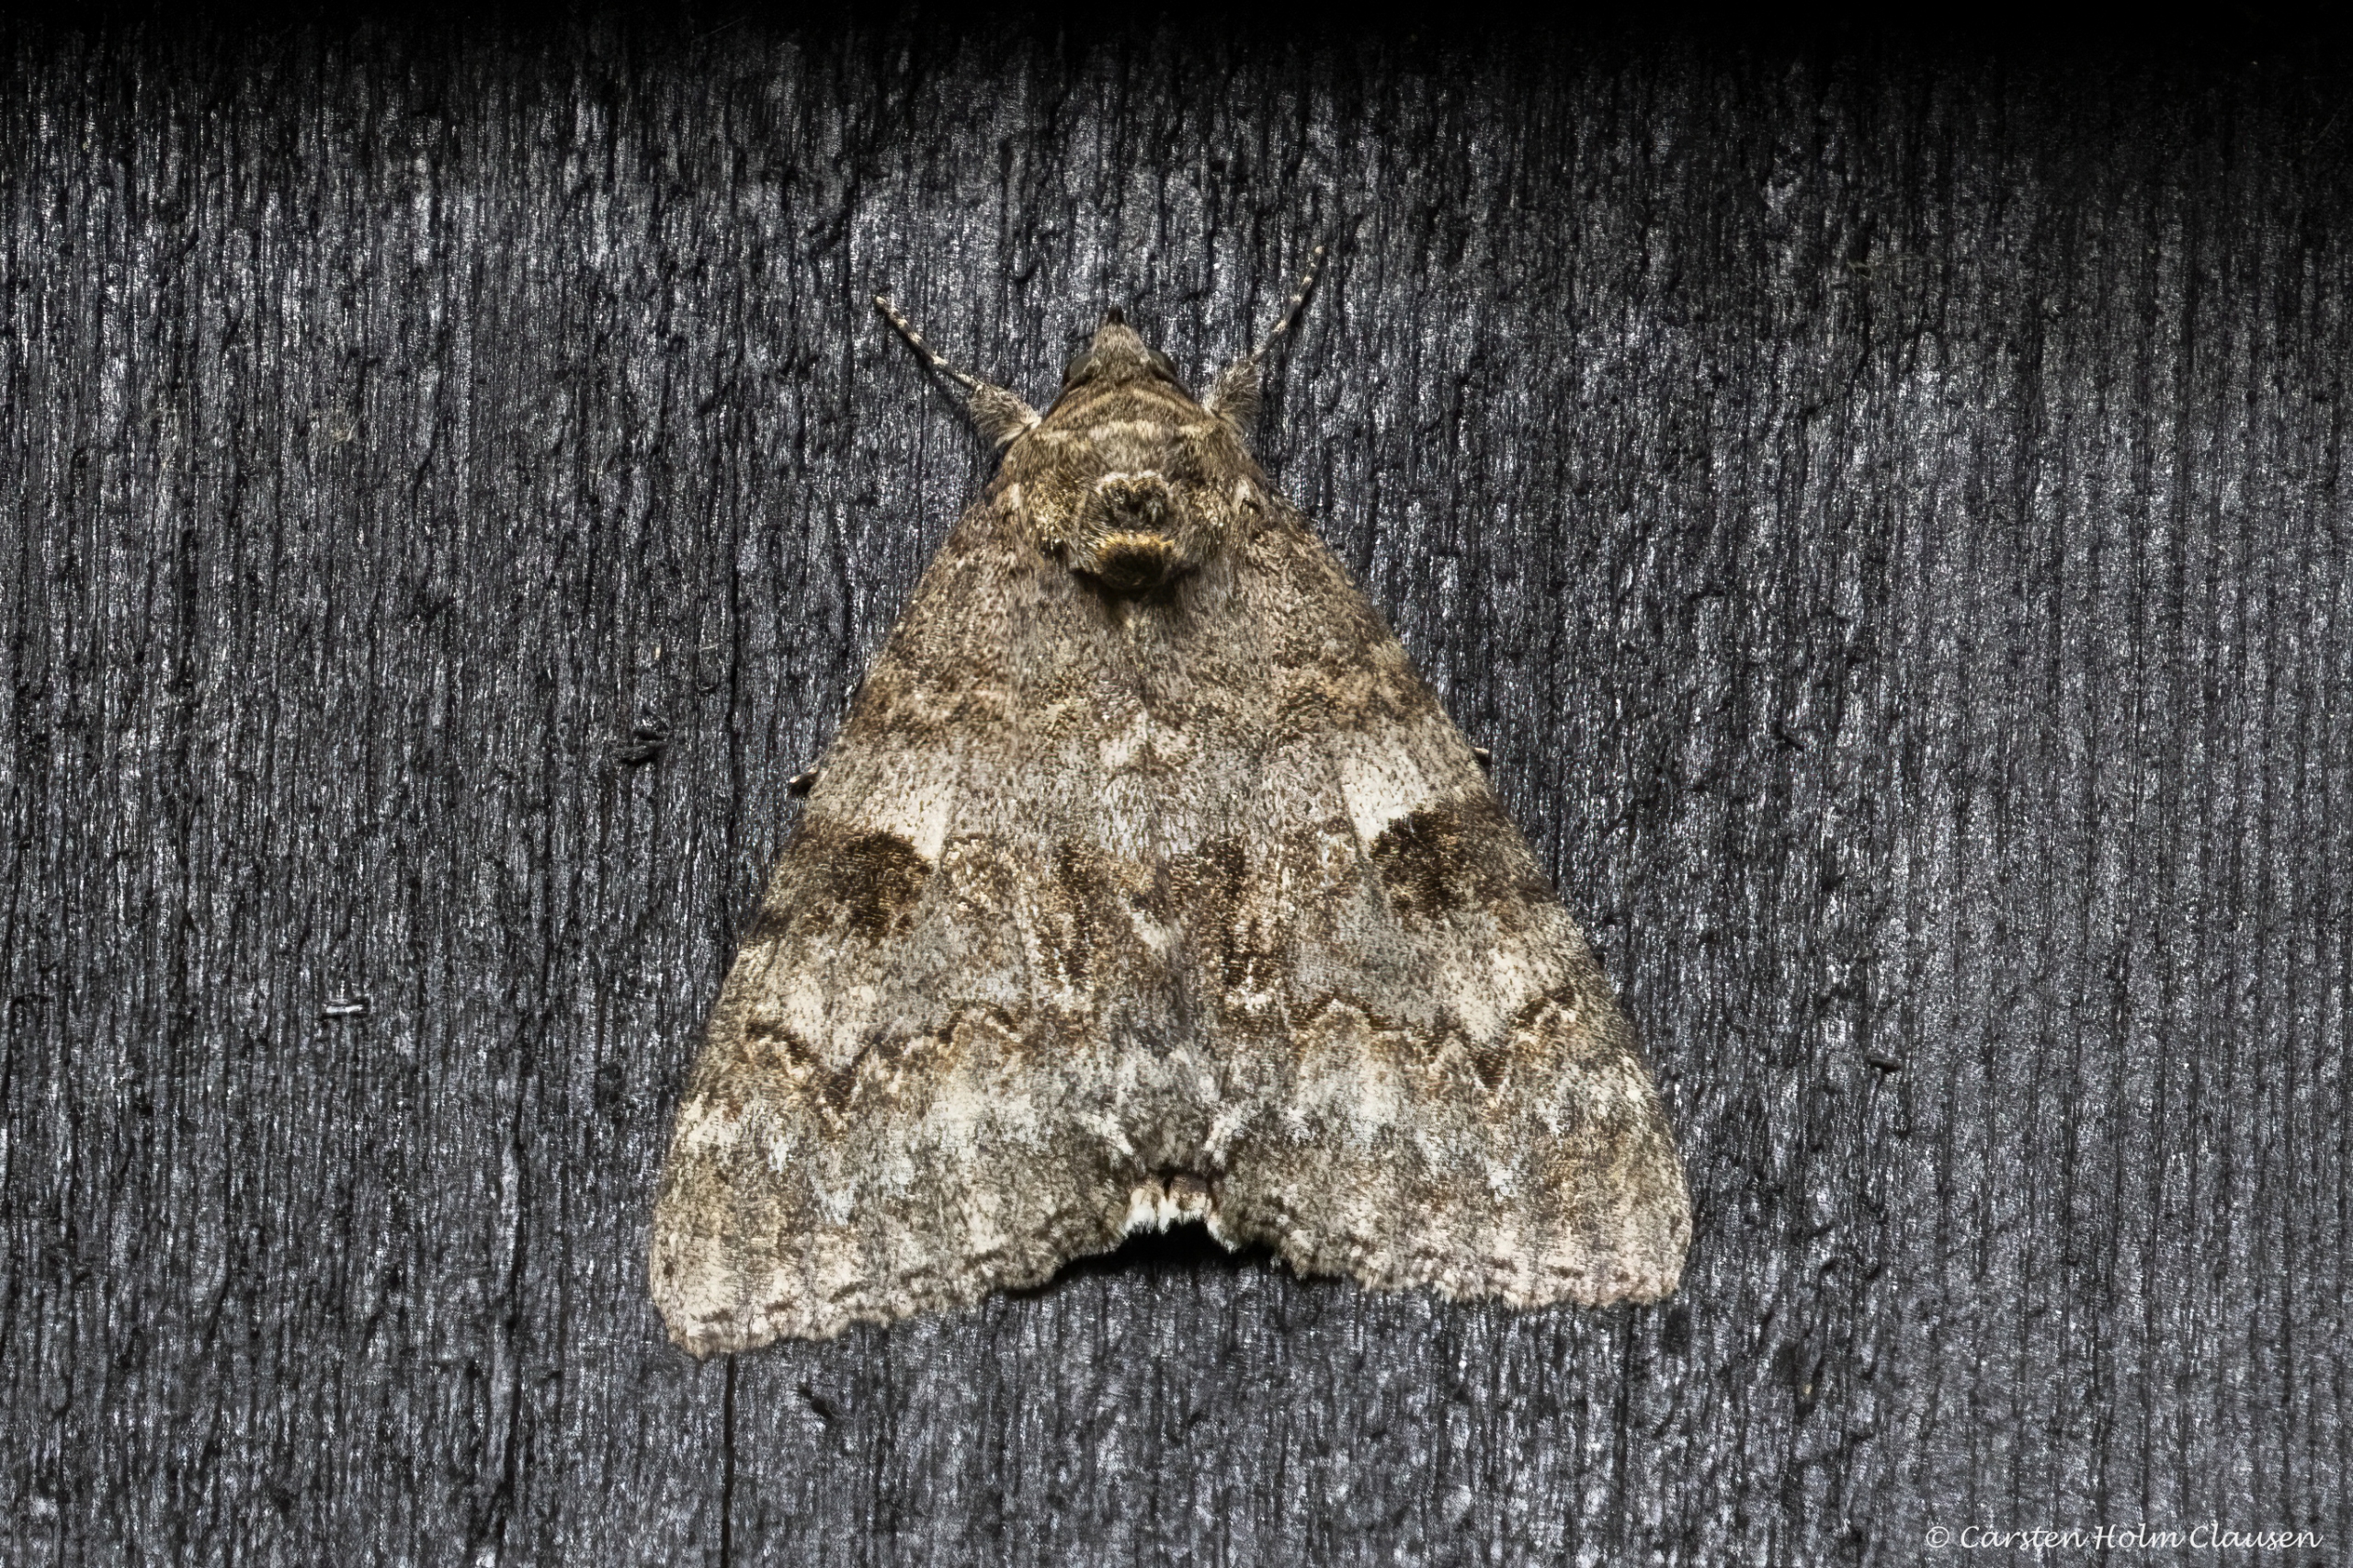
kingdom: Animalia
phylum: Arthropoda
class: Insecta
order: Lepidoptera
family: Erebidae
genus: Catocala
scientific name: Catocala nupta
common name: Rødt ordensbånd
